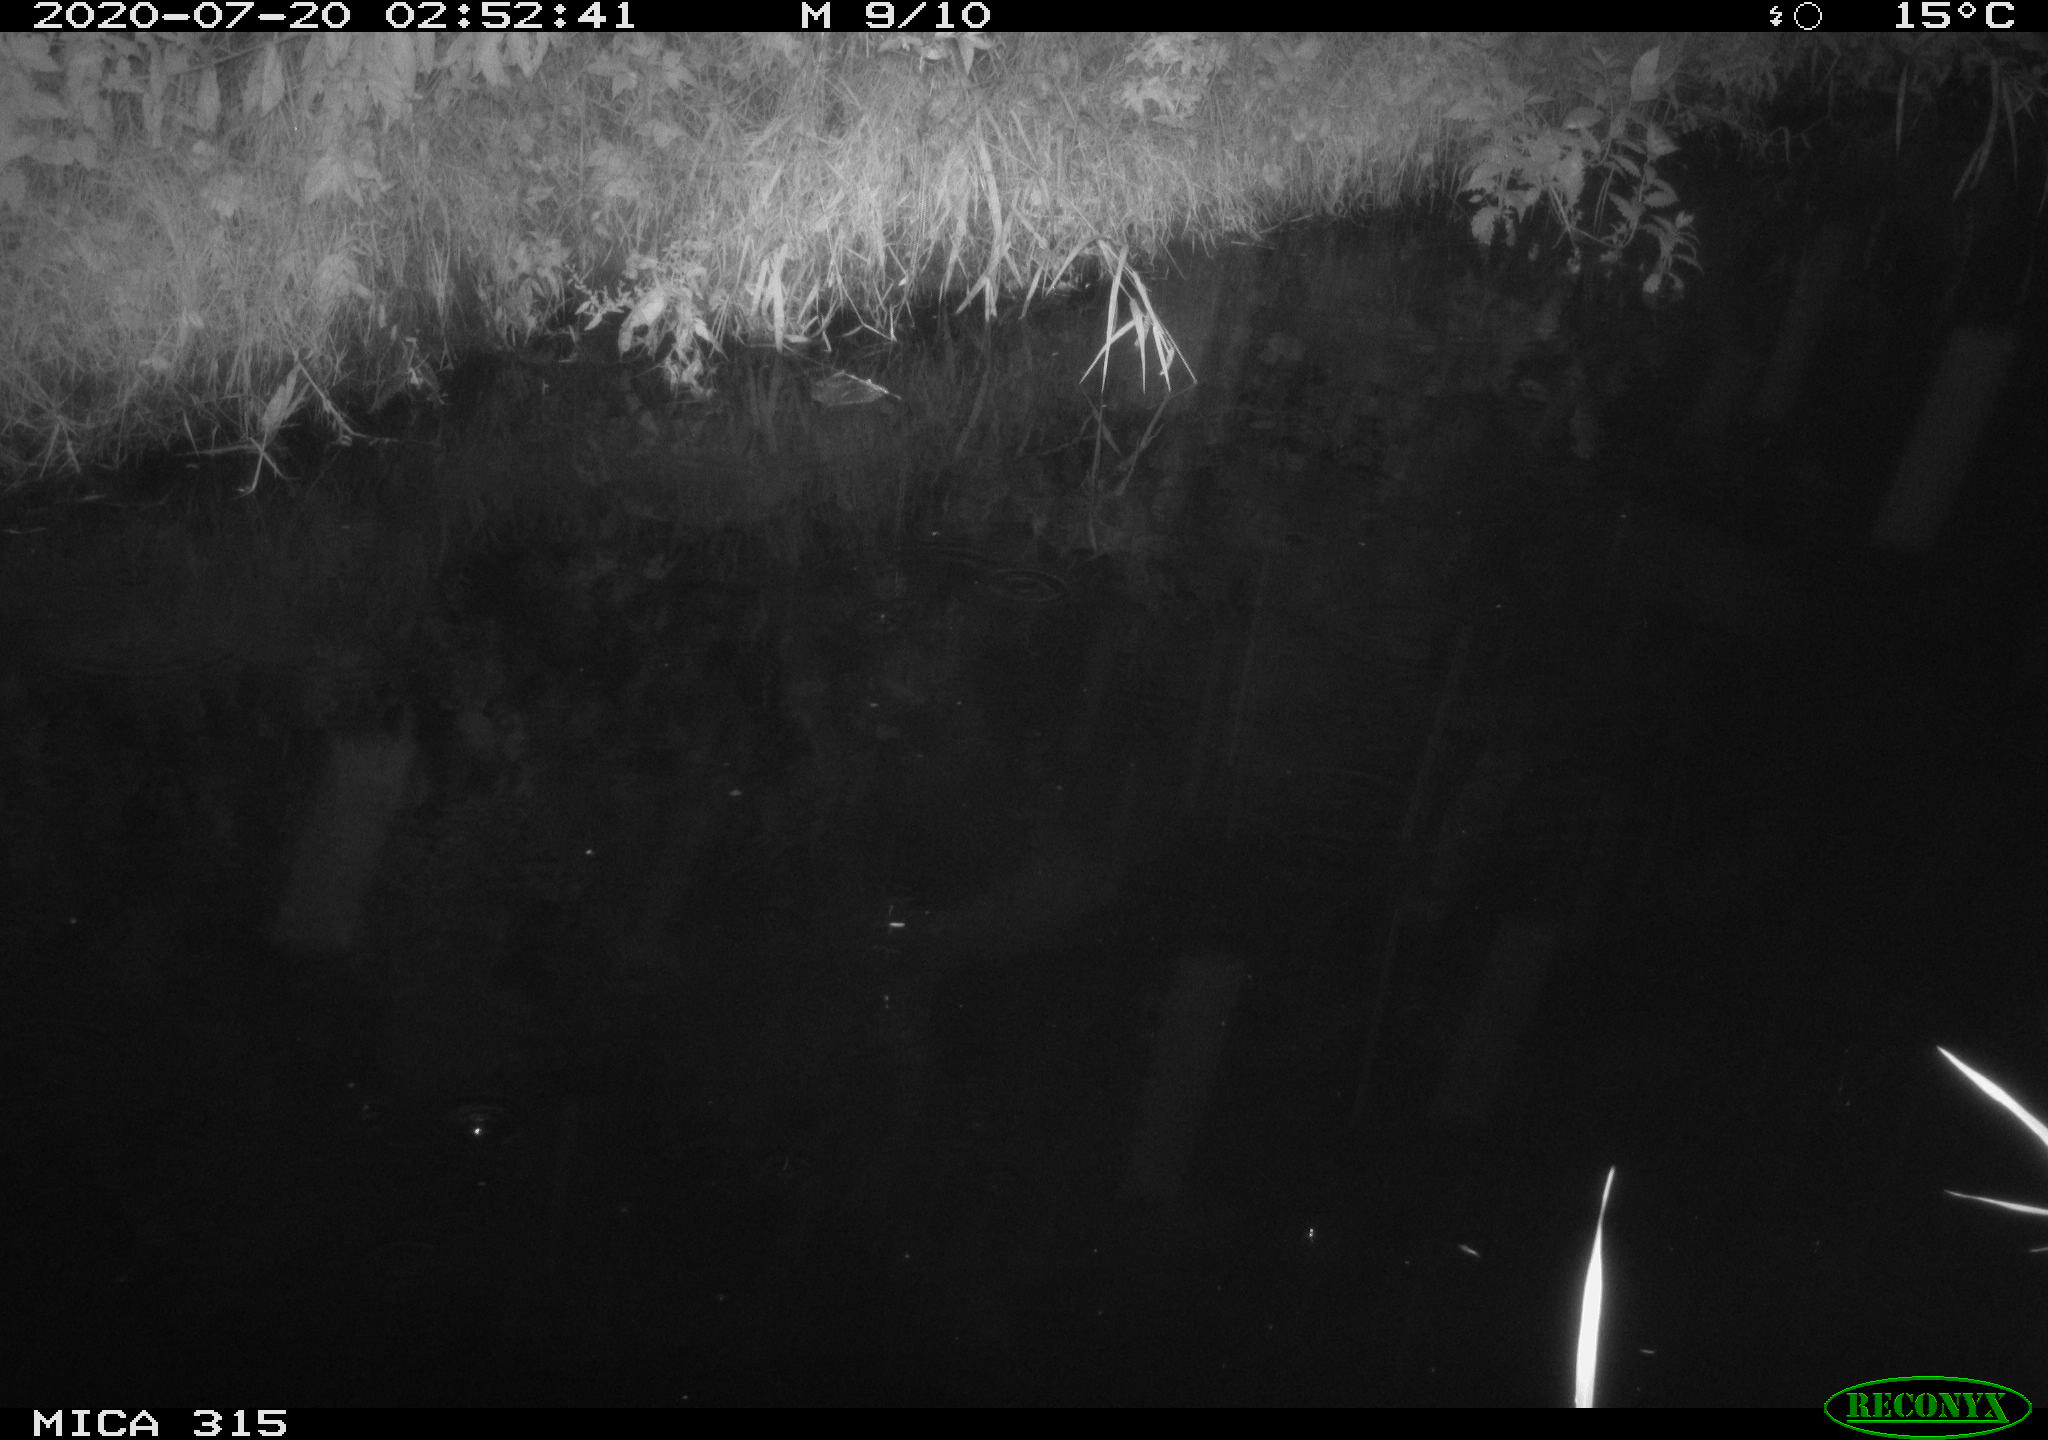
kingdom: Animalia
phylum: Chordata
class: Aves
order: Anseriformes
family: Anatidae
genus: Anas
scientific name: Anas platyrhynchos
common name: Mallard
